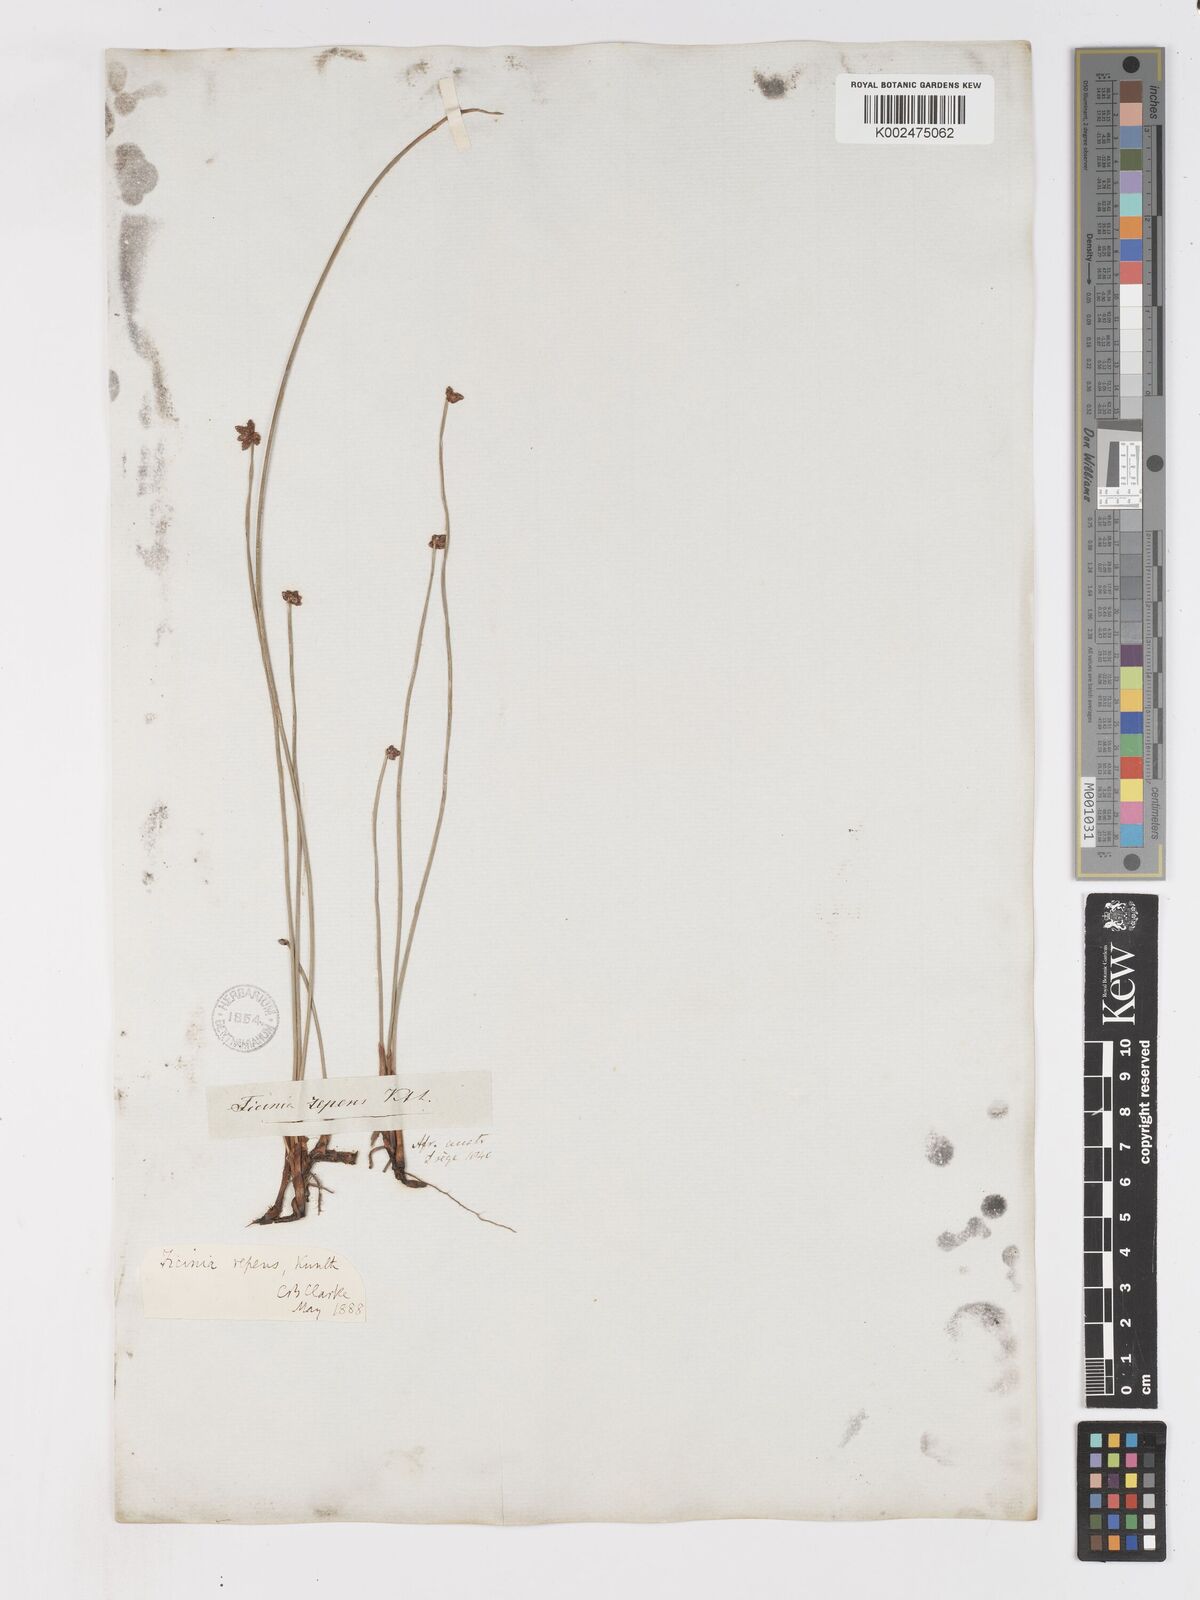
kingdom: Plantae
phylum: Tracheophyta
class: Liliopsida
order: Poales
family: Cyperaceae
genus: Ficinia
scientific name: Ficinia repens
